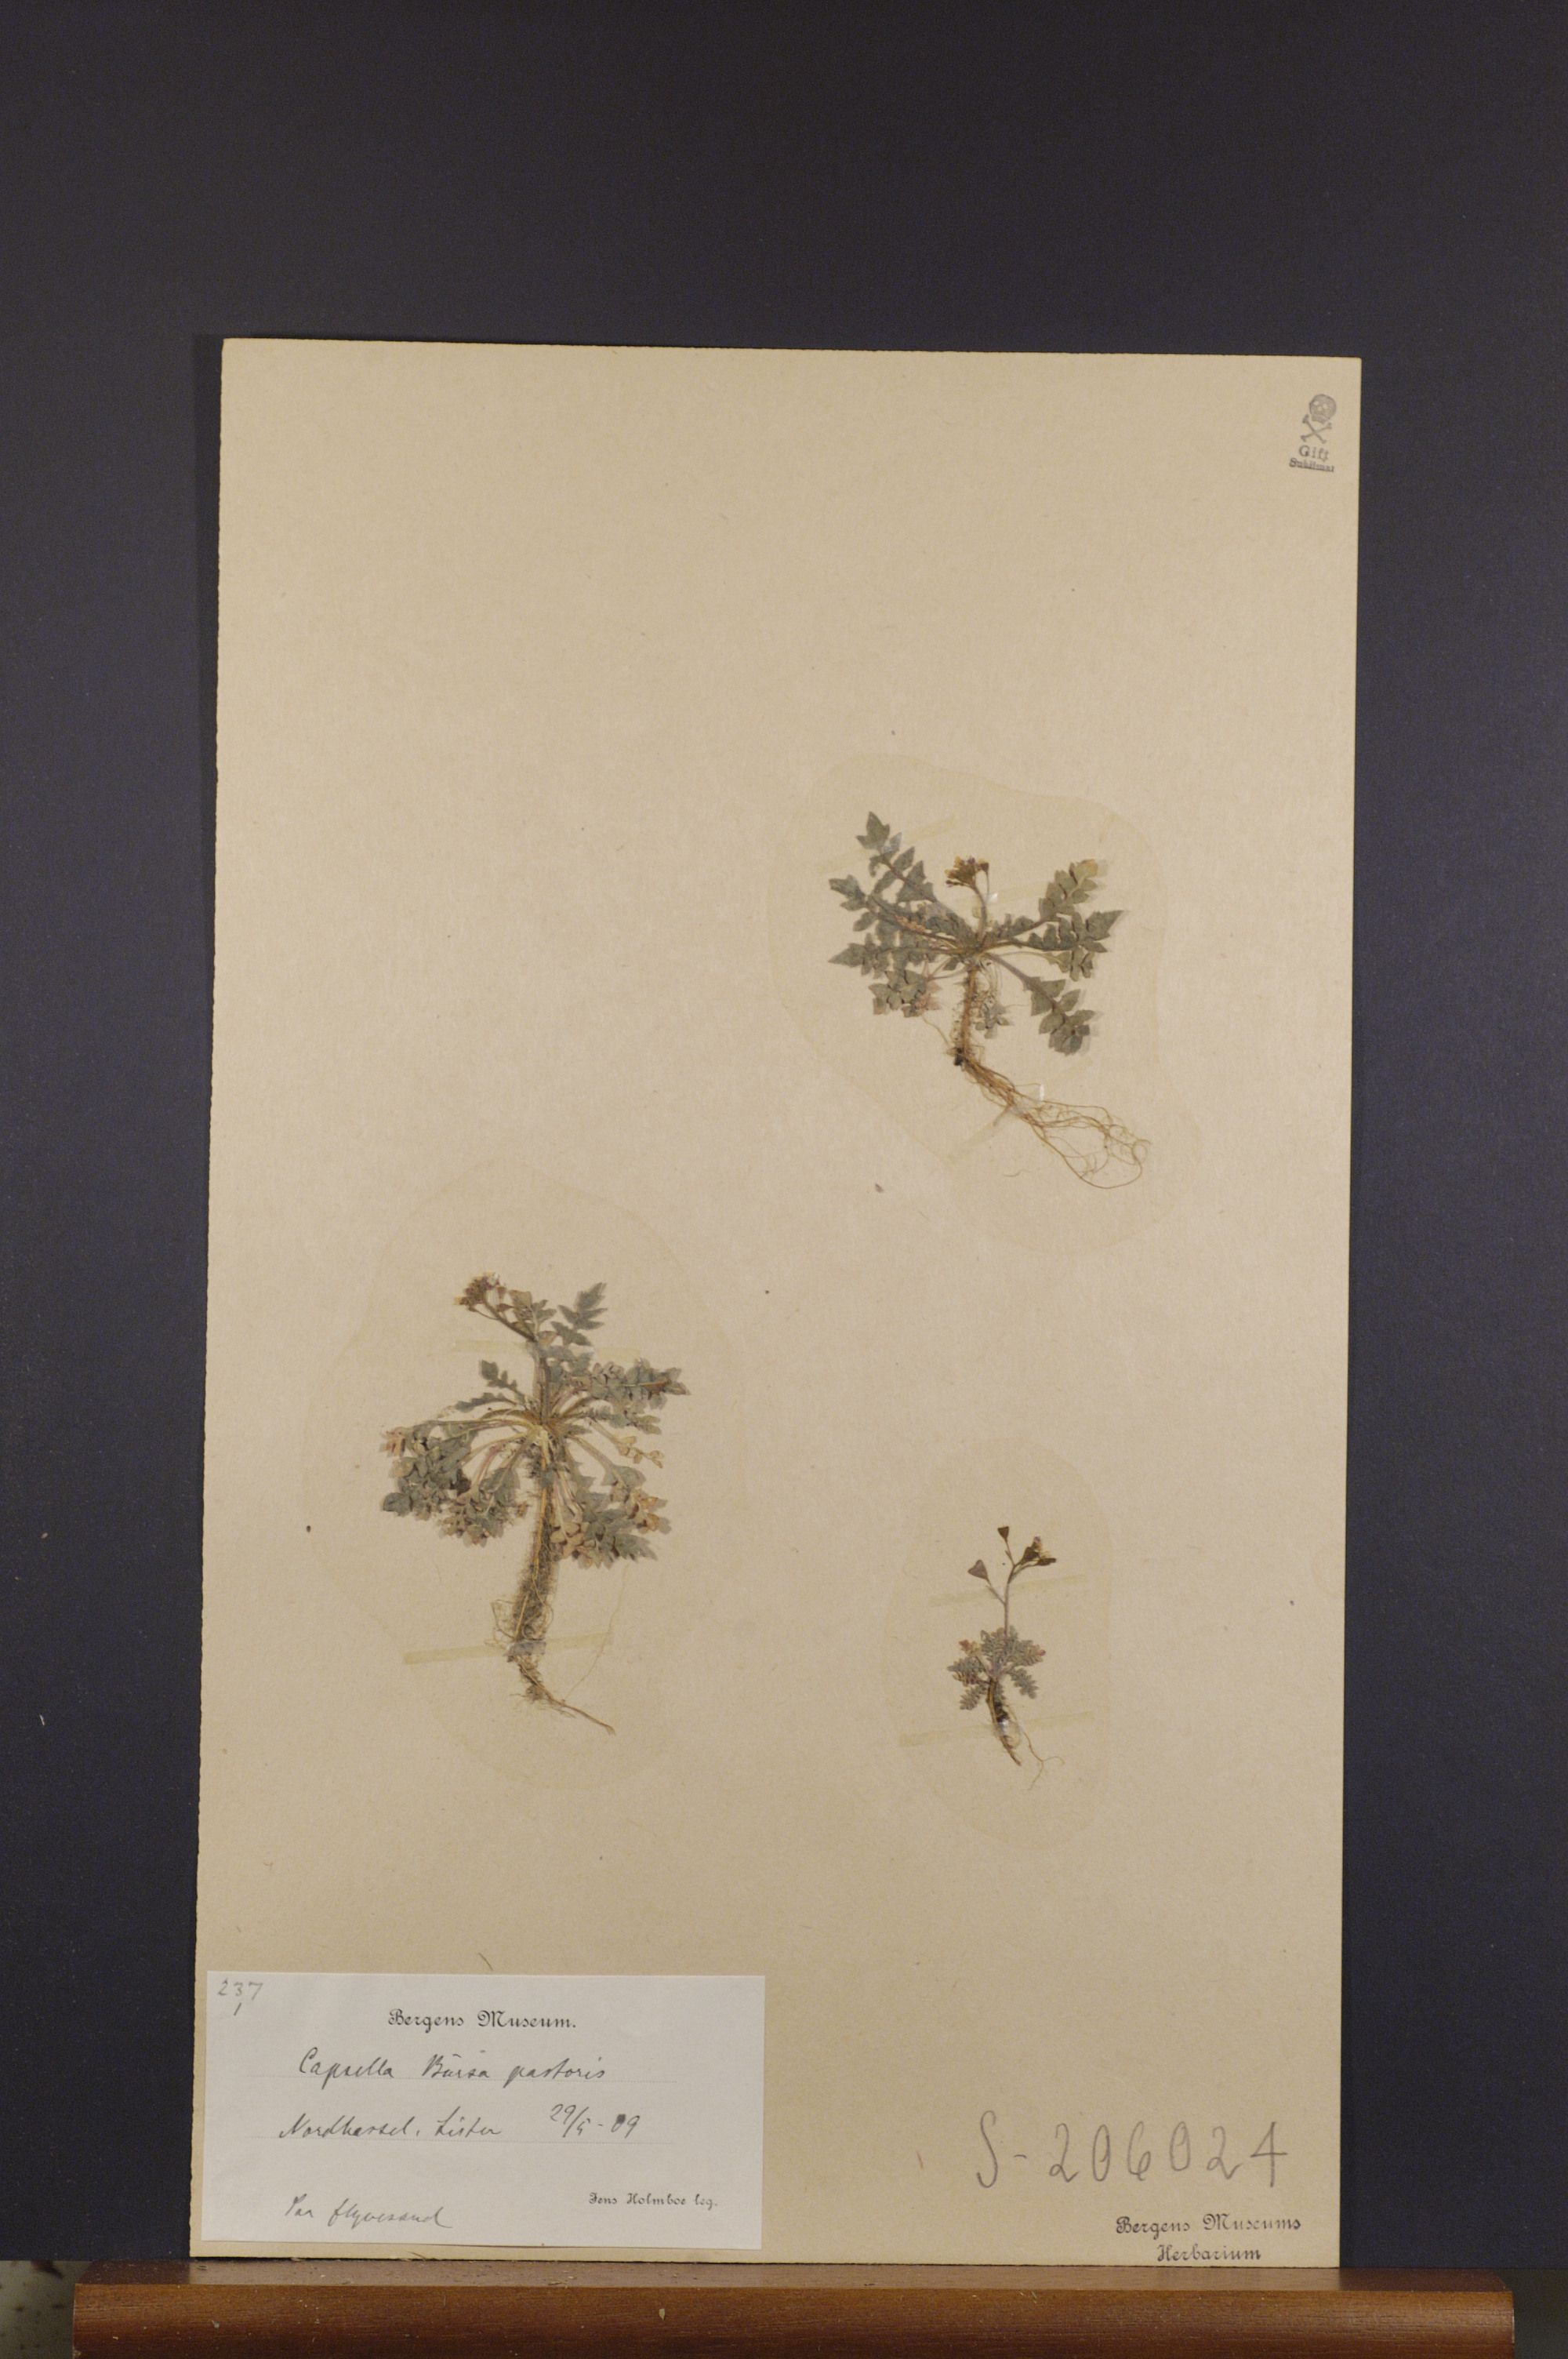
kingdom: Plantae
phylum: Tracheophyta
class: Magnoliopsida
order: Brassicales
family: Brassicaceae
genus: Capsella
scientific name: Capsella bursa-pastoris
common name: Shepherd's purse
